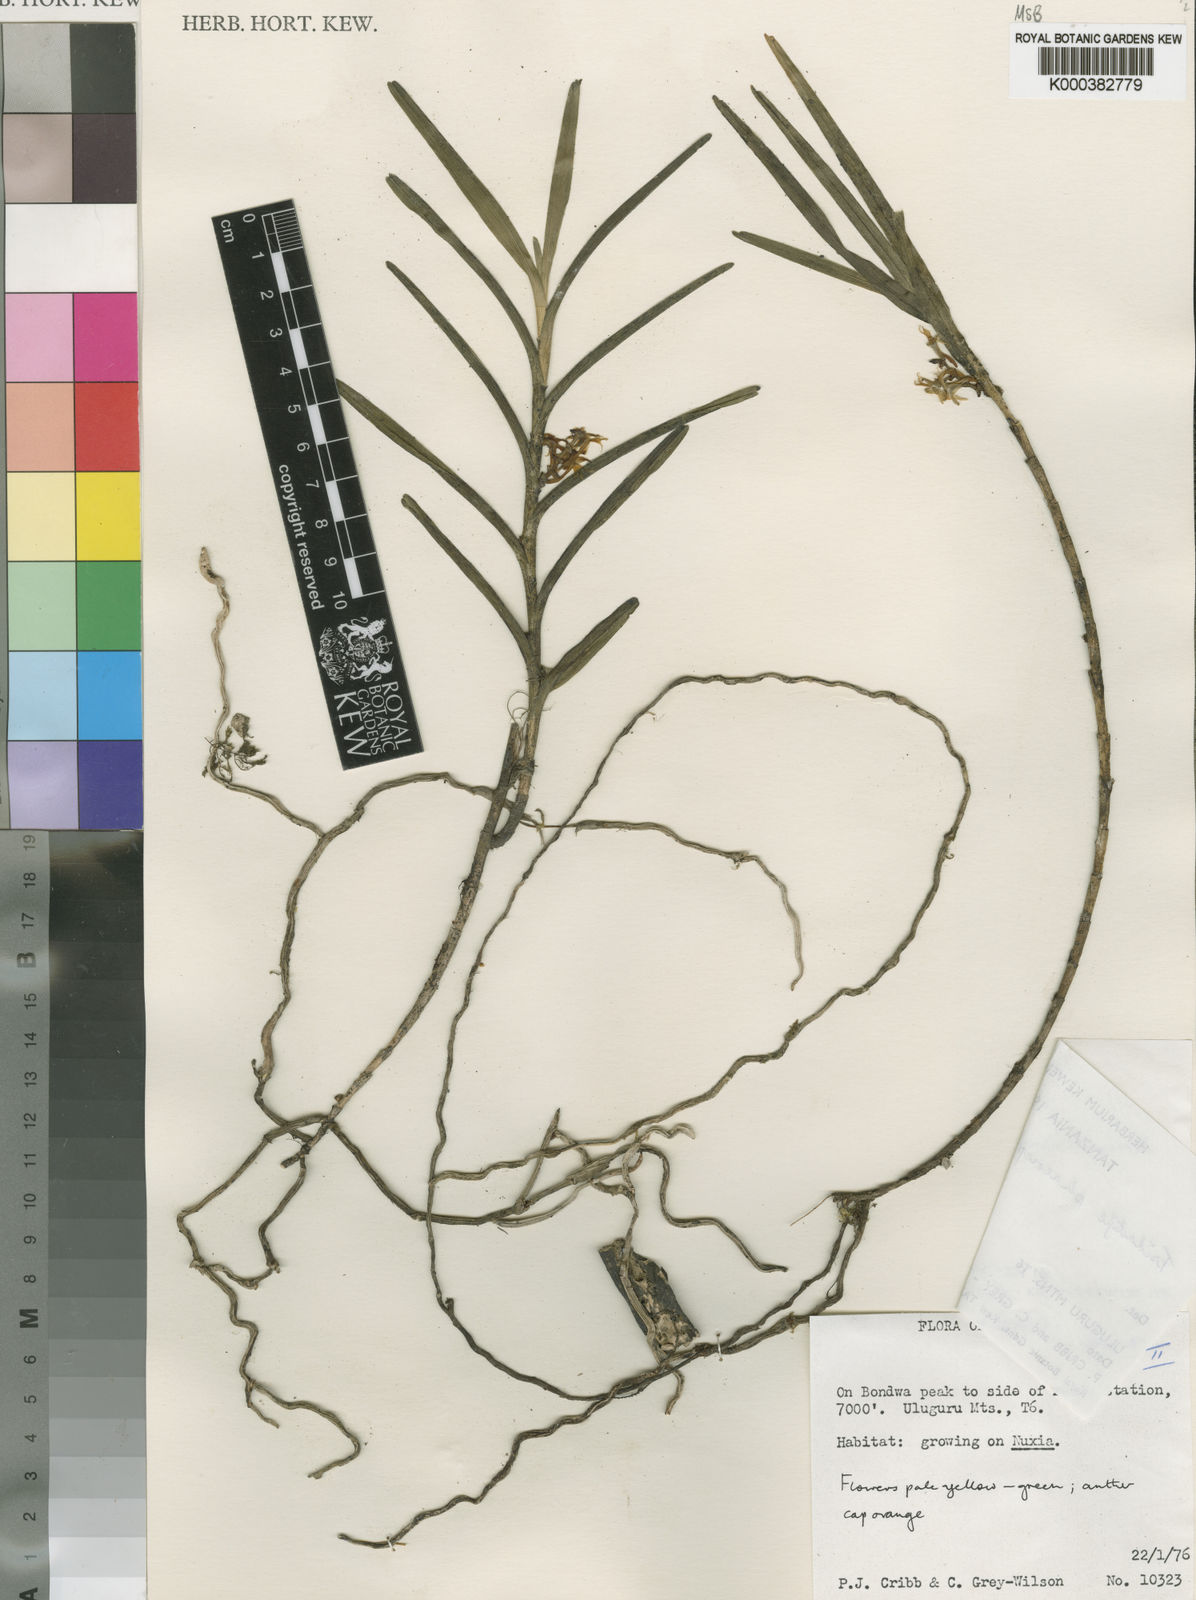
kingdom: Plantae
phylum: Tracheophyta
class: Liliopsida
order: Asparagales
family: Orchidaceae
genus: Tridactyle
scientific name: Tridactyle phaeocephala
